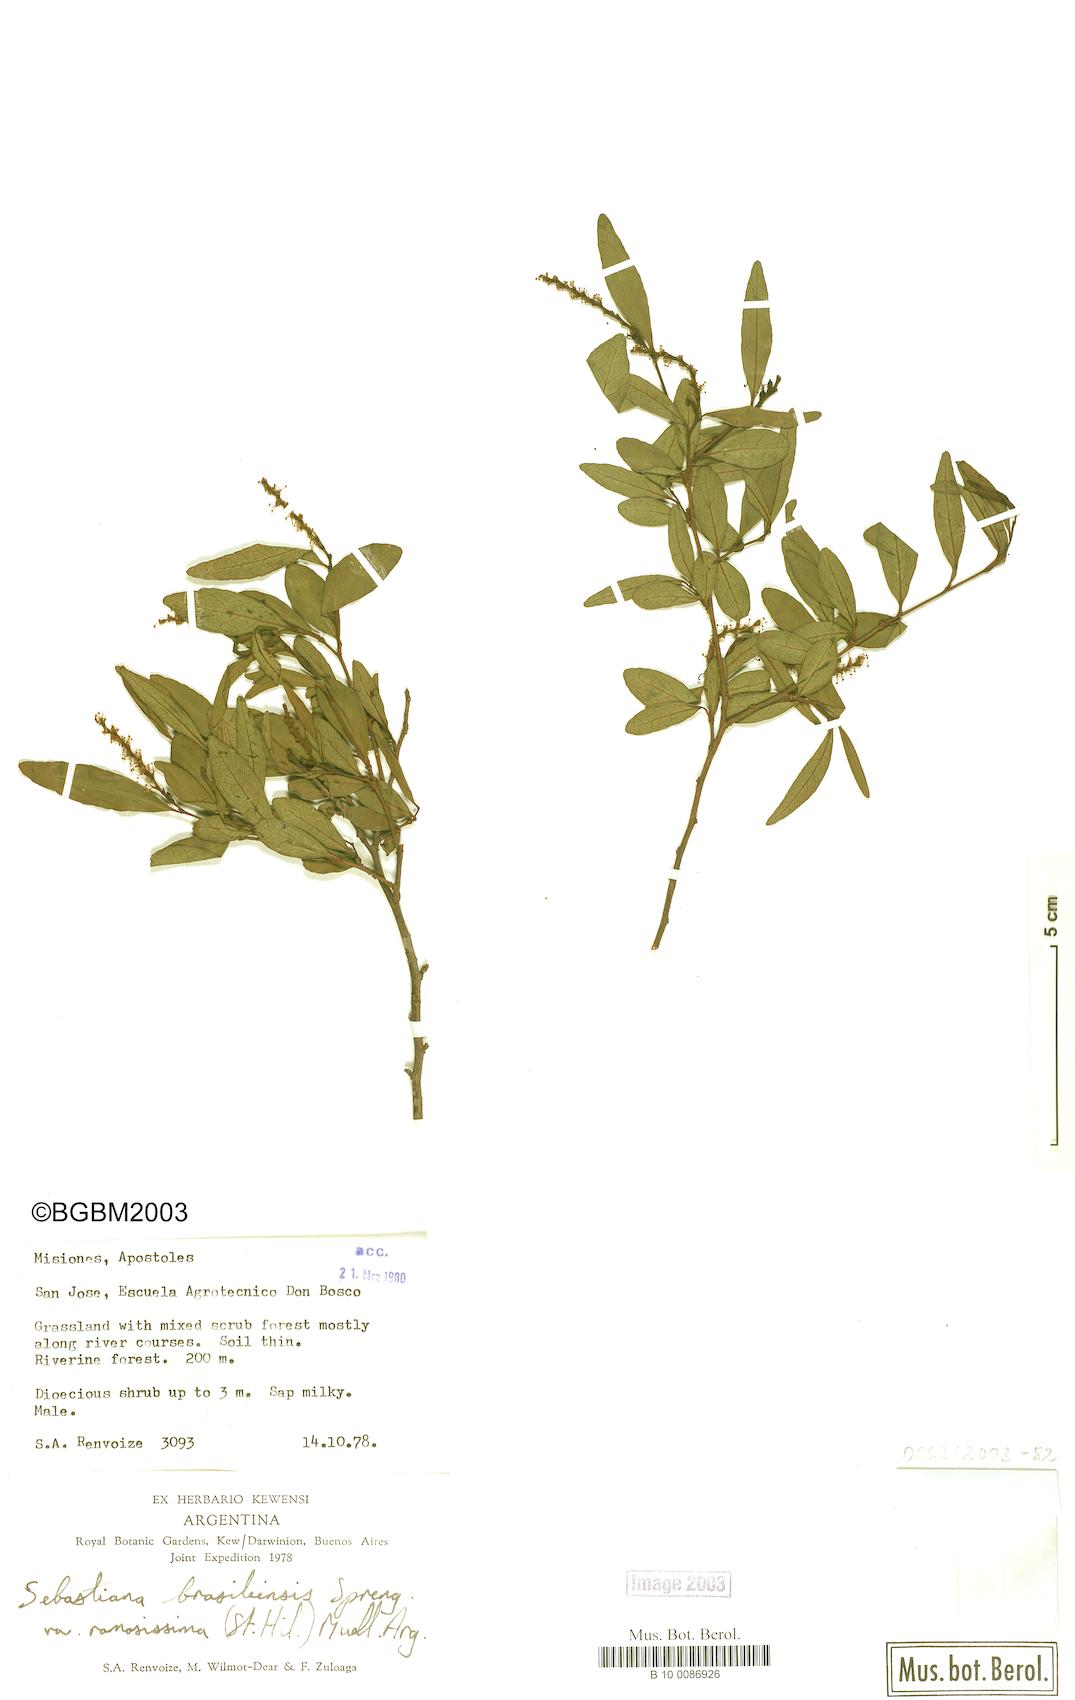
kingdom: Plantae
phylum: Tracheophyta
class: Magnoliopsida
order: Malpighiales
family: Euphorbiaceae
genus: Sebastiania
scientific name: Sebastiania ramosissima
